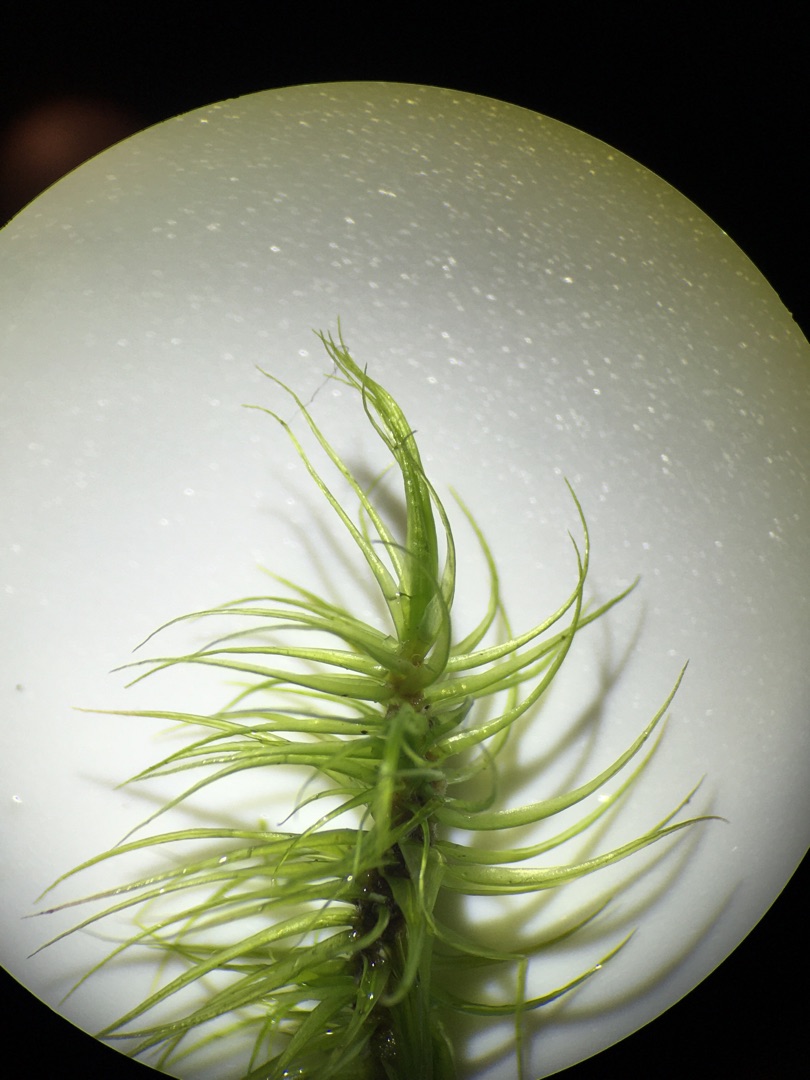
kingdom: Plantae
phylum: Bryophyta
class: Bryopsida
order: Dicranales
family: Dicranaceae
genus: Dicranum
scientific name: Dicranum majus
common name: Stor kløvtand
